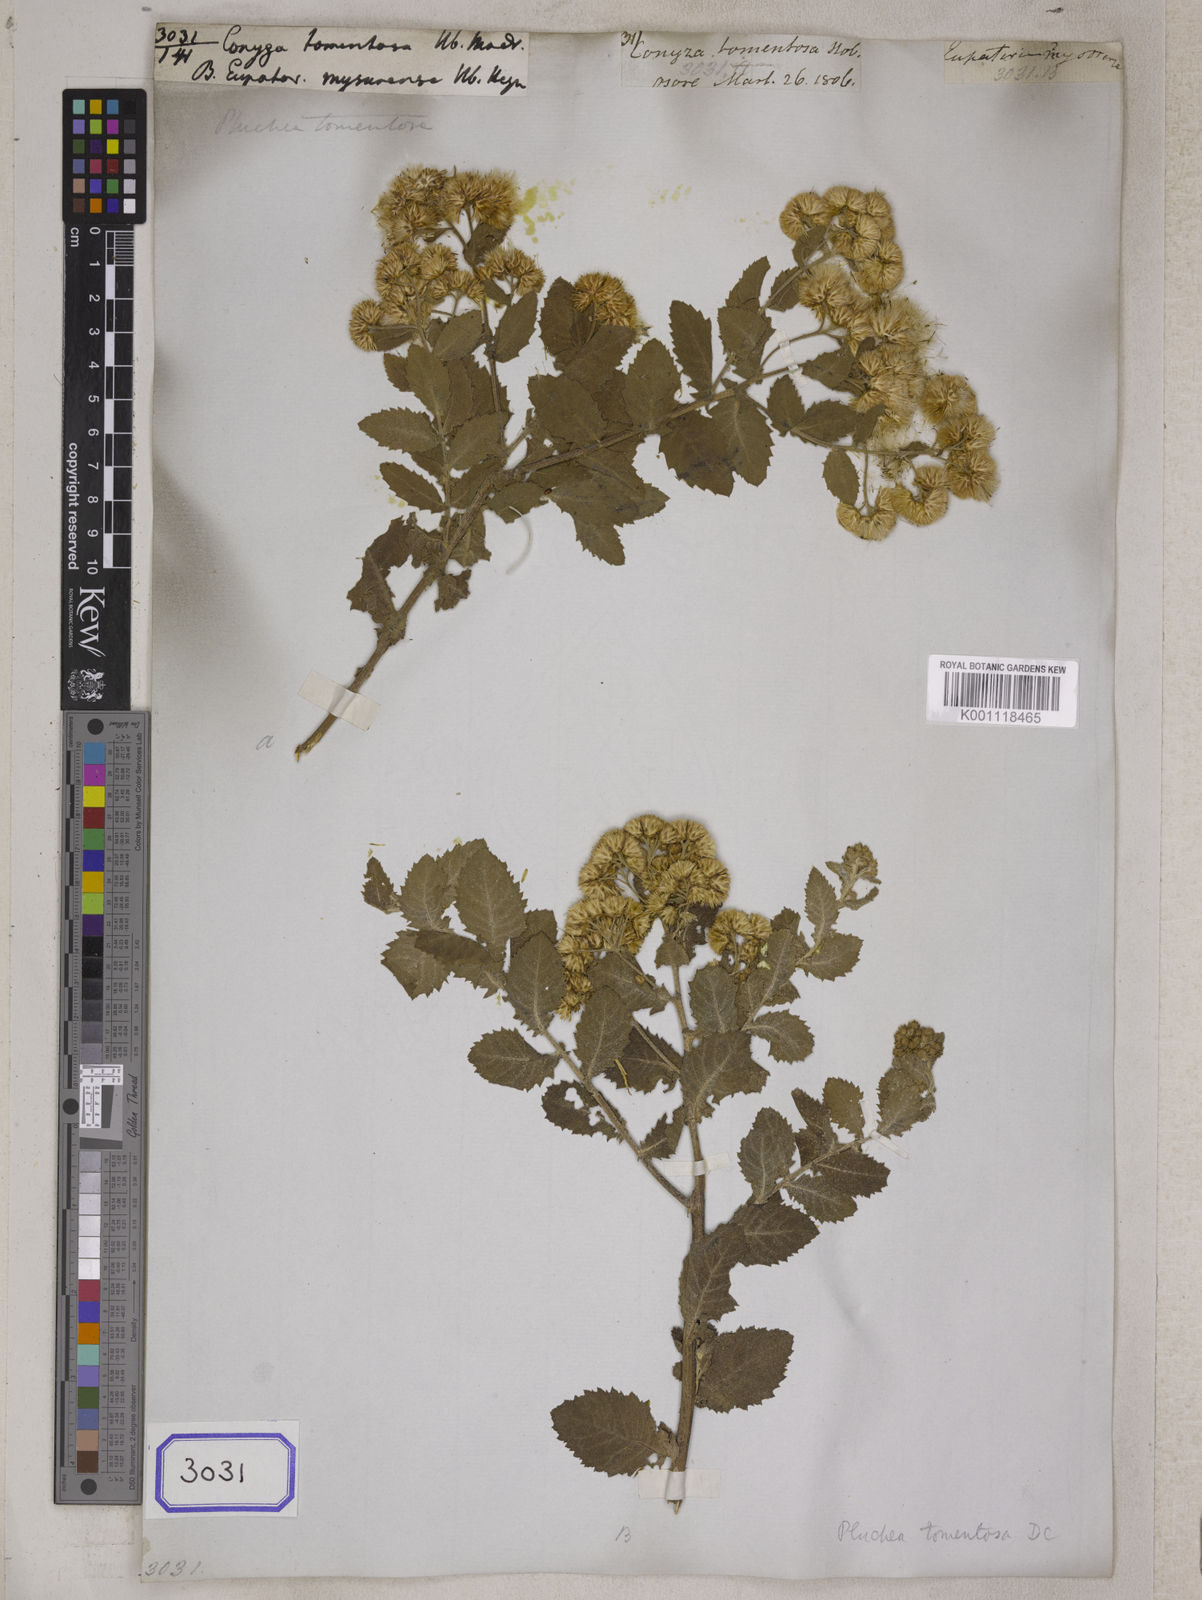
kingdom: Plantae
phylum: Tracheophyta
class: Magnoliopsida
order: Asterales
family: Asteraceae
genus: Pluchea
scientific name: Pluchea ovalis
